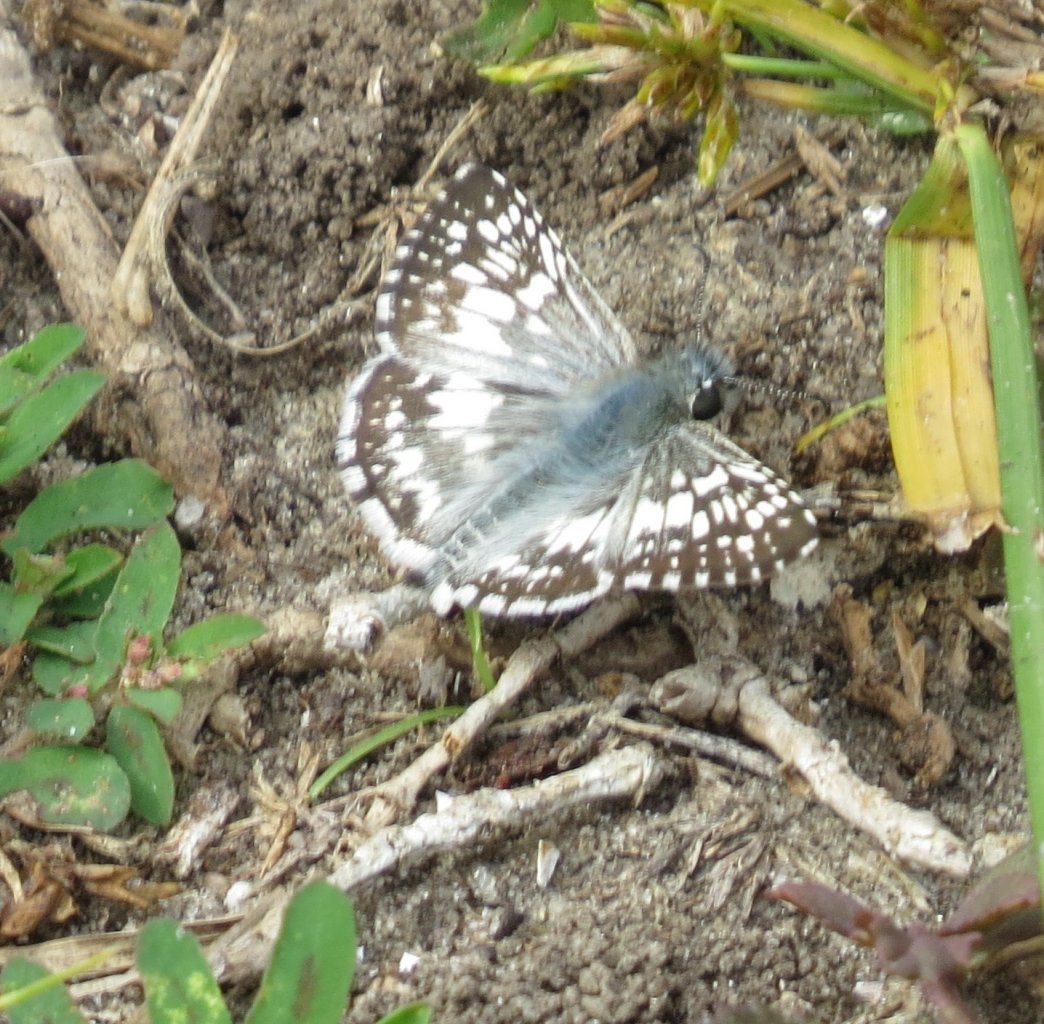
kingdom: Animalia
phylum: Arthropoda
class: Insecta
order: Lepidoptera
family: Hesperiidae
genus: Pyrgus
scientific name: Pyrgus oileus
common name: Tropical Checkered-Skipper
